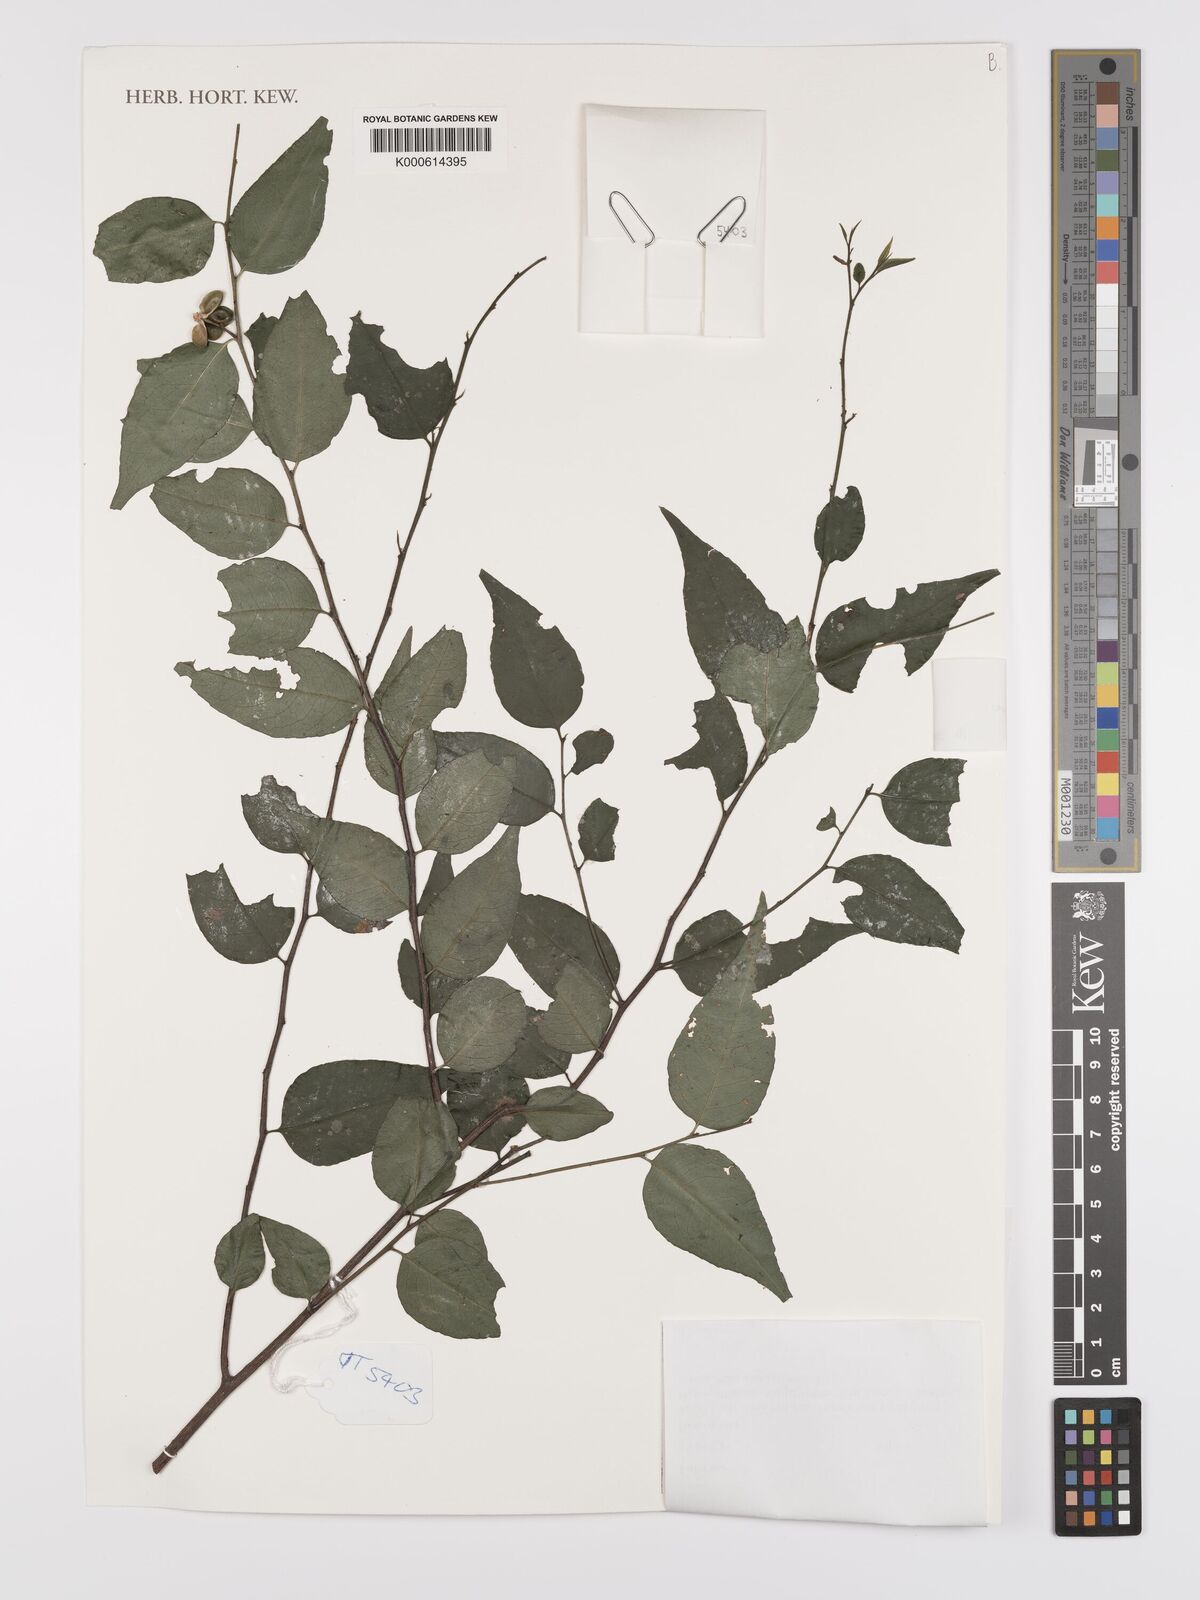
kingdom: Plantae
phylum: Tracheophyta
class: Magnoliopsida
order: Celastrales
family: Celastraceae
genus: Gymnosporia
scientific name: Gymnosporia acuminata
